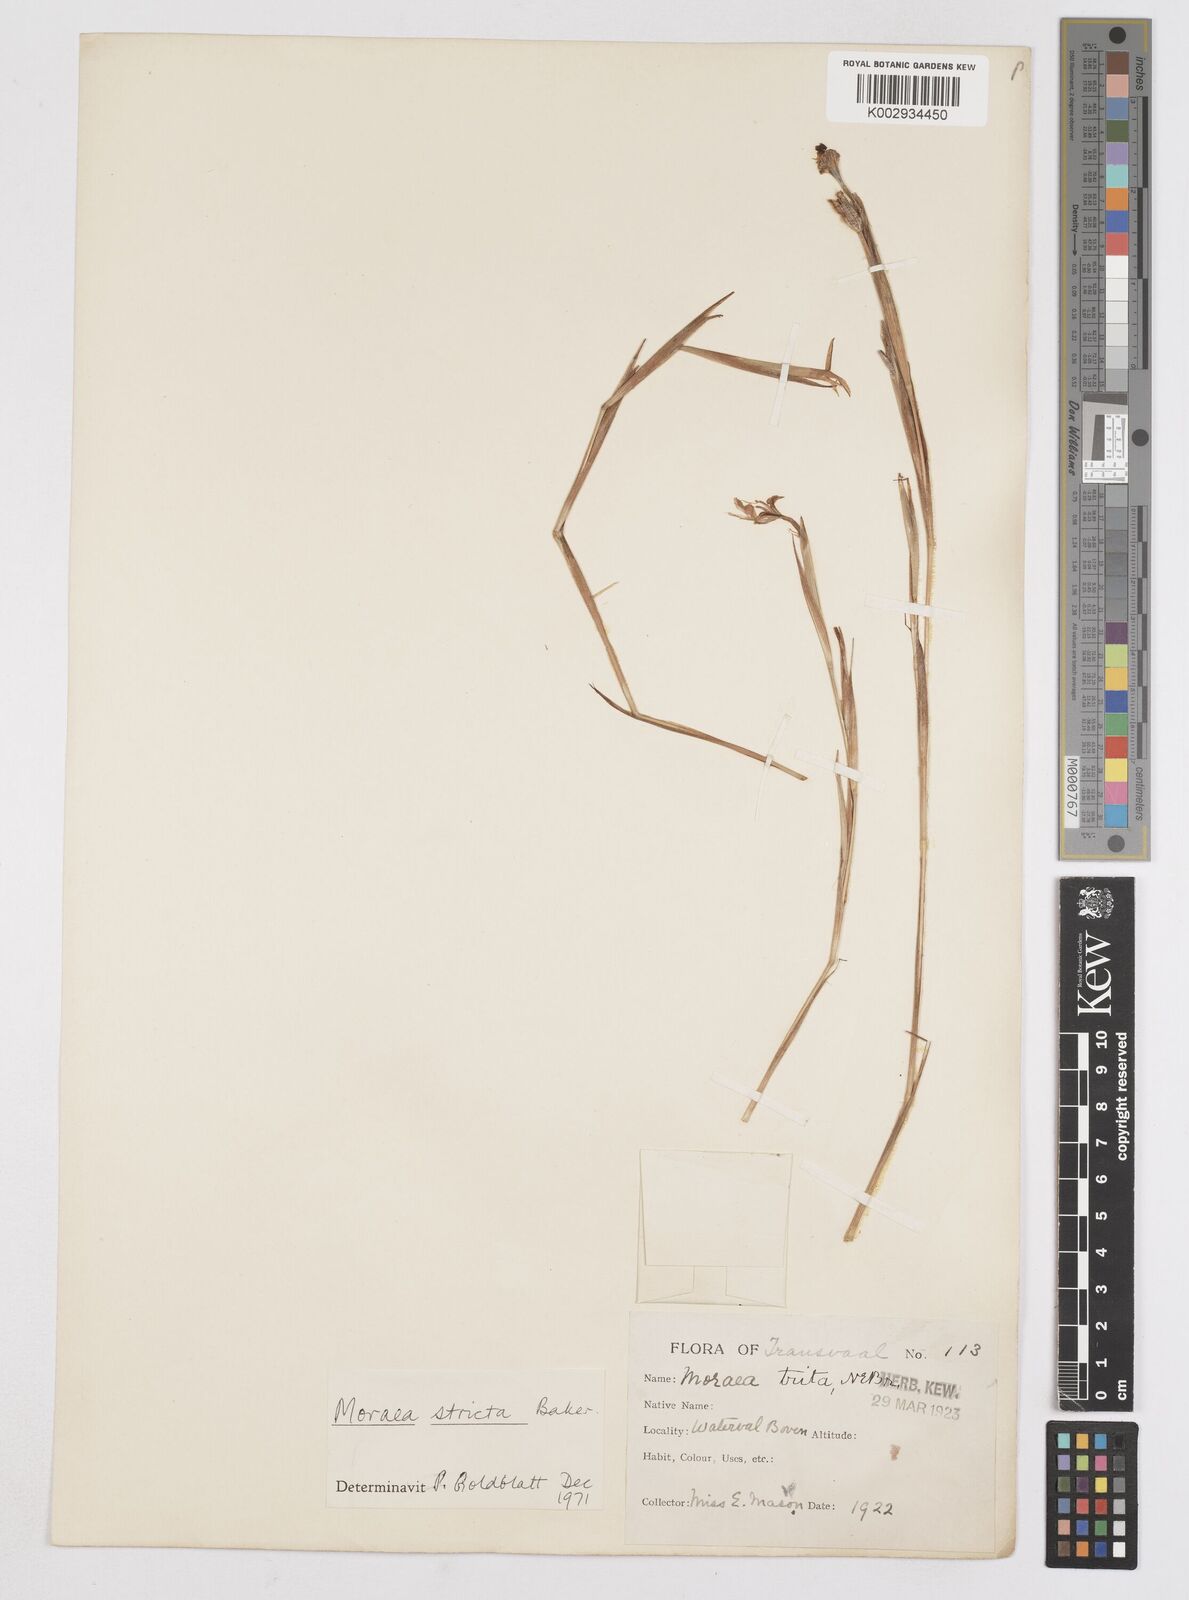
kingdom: Plantae
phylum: Tracheophyta
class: Liliopsida
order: Asparagales
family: Iridaceae
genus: Moraea
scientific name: Moraea stricta
